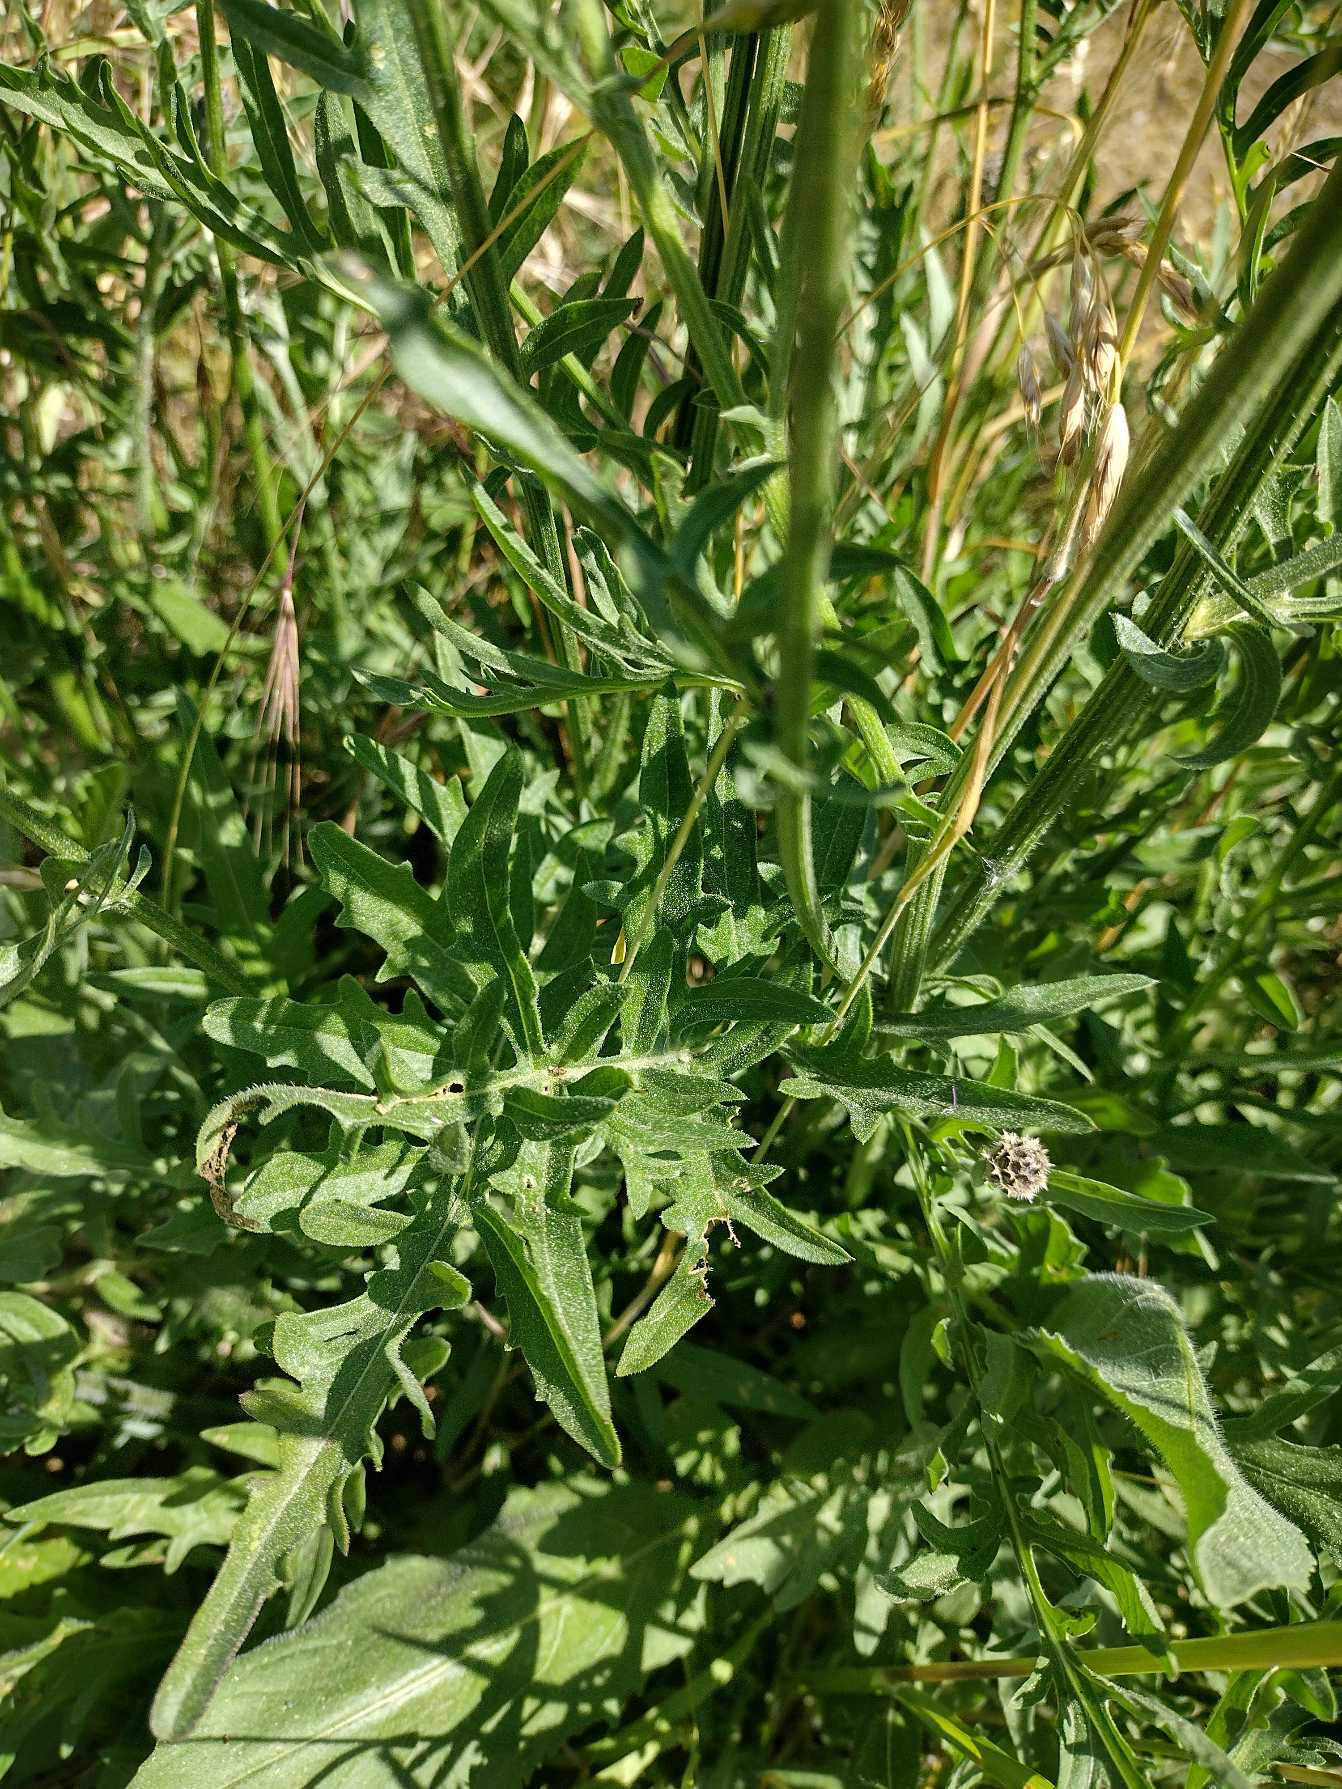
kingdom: Plantae
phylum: Tracheophyta
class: Magnoliopsida
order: Asterales
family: Asteraceae
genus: Centaurea
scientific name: Centaurea scabiosa
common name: Stor knopurt
